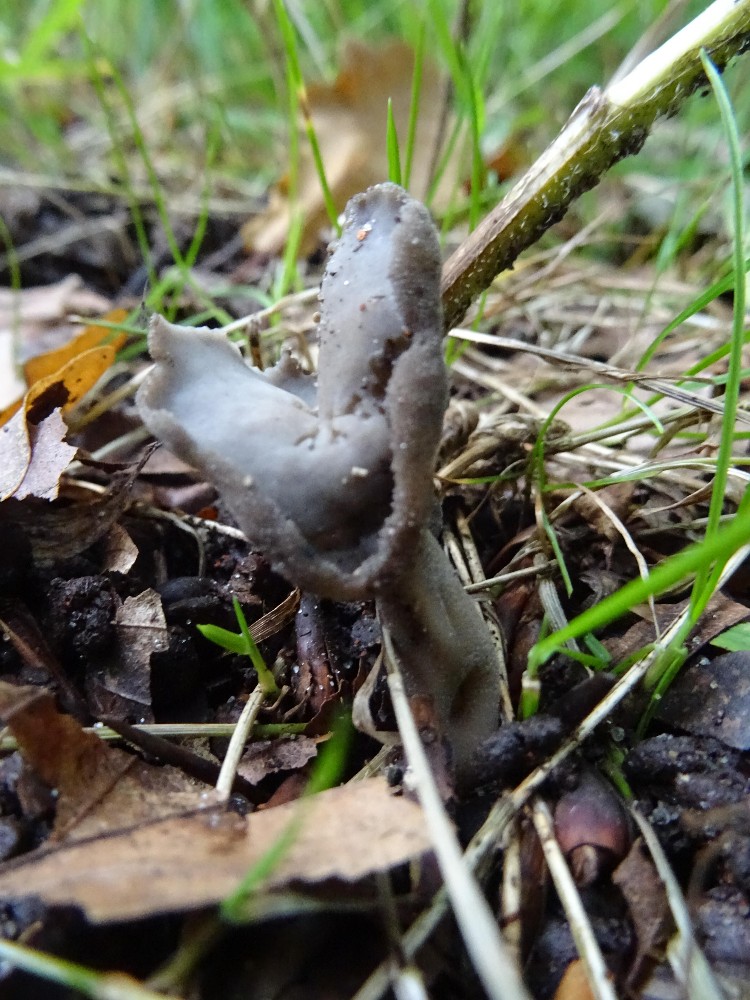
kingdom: Fungi
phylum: Ascomycota
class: Pezizomycetes
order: Pezizales
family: Helvellaceae
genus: Helvella
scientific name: Helvella
